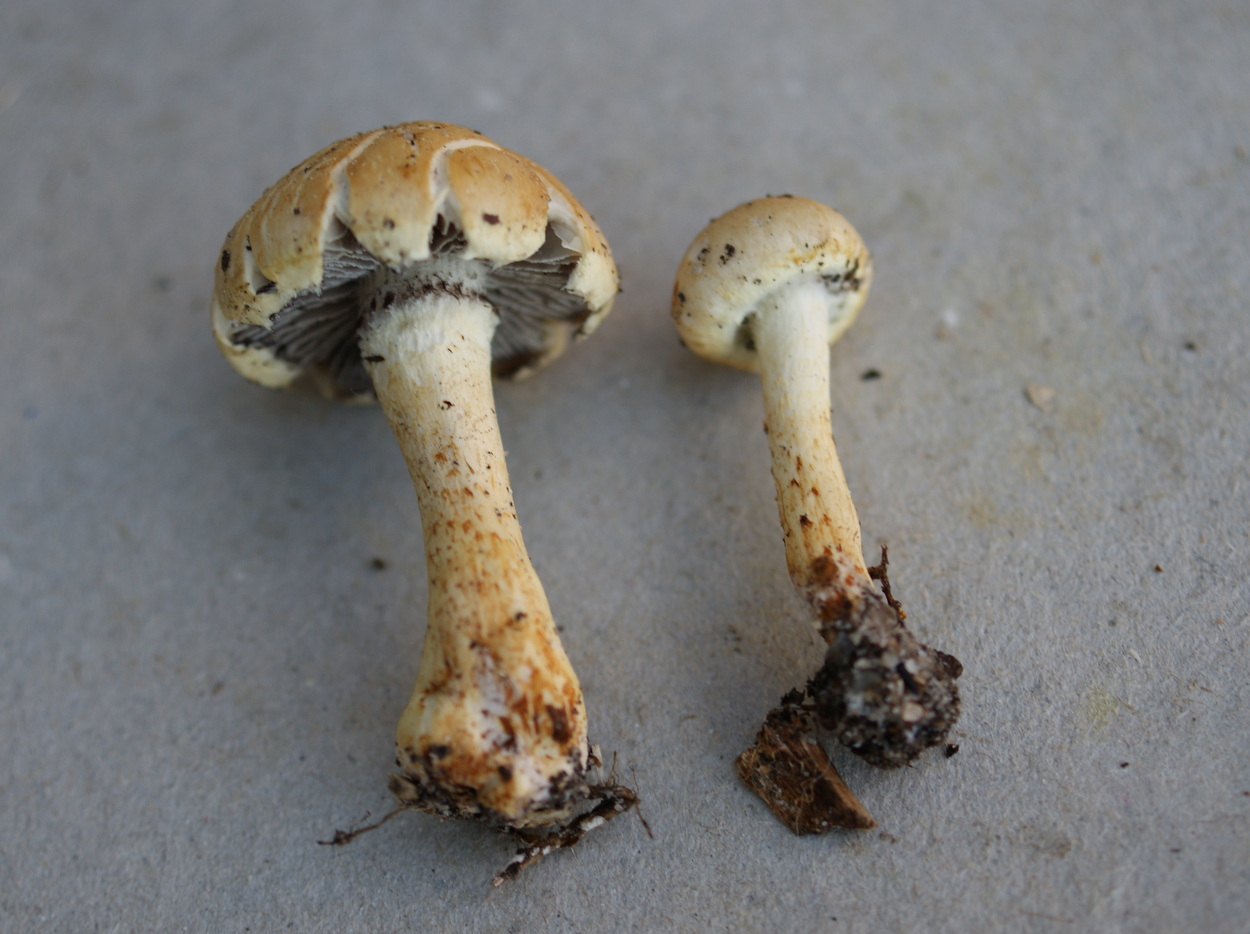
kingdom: Fungi
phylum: Basidiomycota
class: Agaricomycetes
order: Agaricales
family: Strophariaceae
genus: Leratiomyces
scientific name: Leratiomyces percevalii
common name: træflis-bredblad
